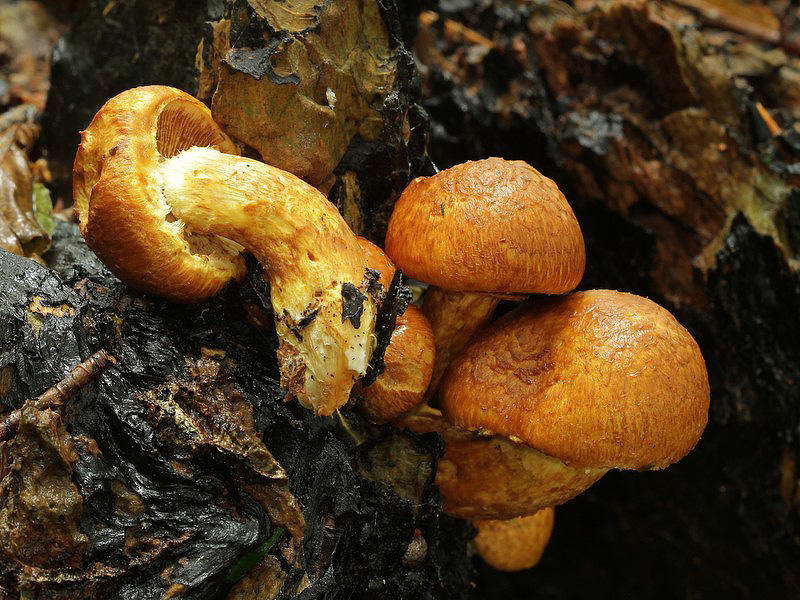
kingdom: Fungi
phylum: Basidiomycota
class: Agaricomycetes
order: Agaricales
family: Hymenogastraceae
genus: Gymnopilus
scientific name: Gymnopilus spectabilis
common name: fibret flammehat
